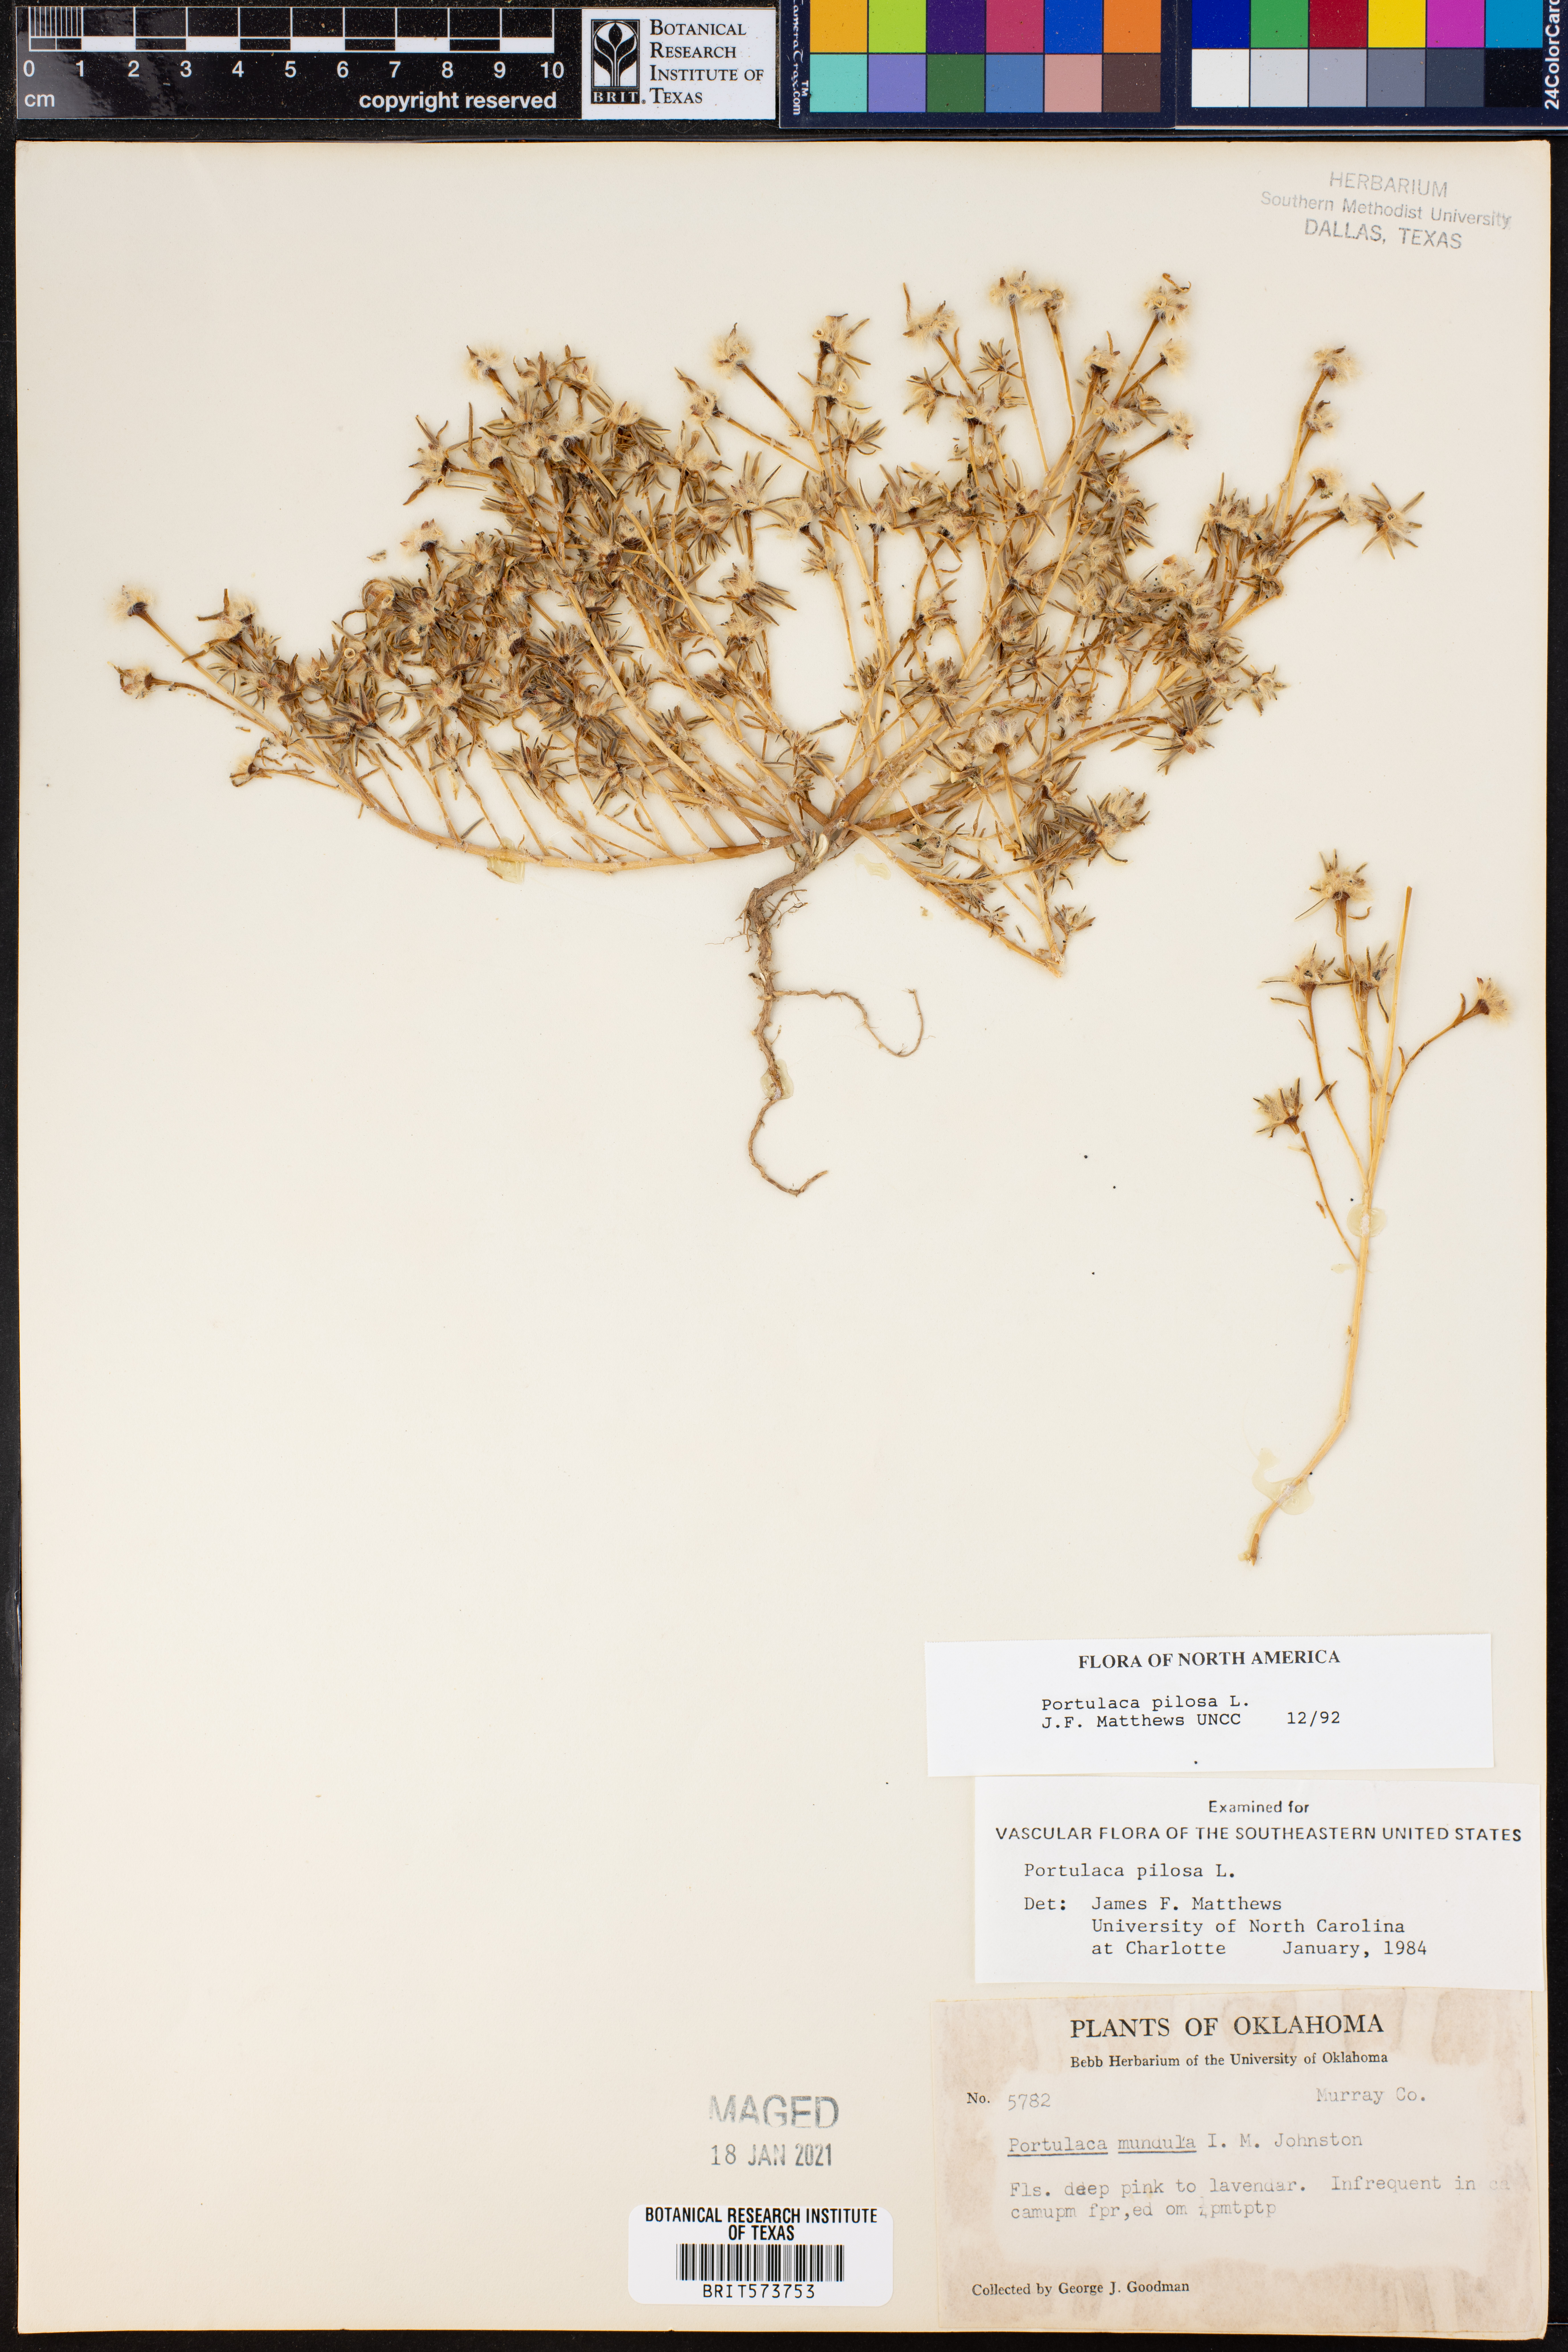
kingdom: Plantae
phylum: Tracheophyta
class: Magnoliopsida
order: Caryophyllales
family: Portulacaceae
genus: Portulaca
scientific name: Portulaca pilosa
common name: Kiss me quick
